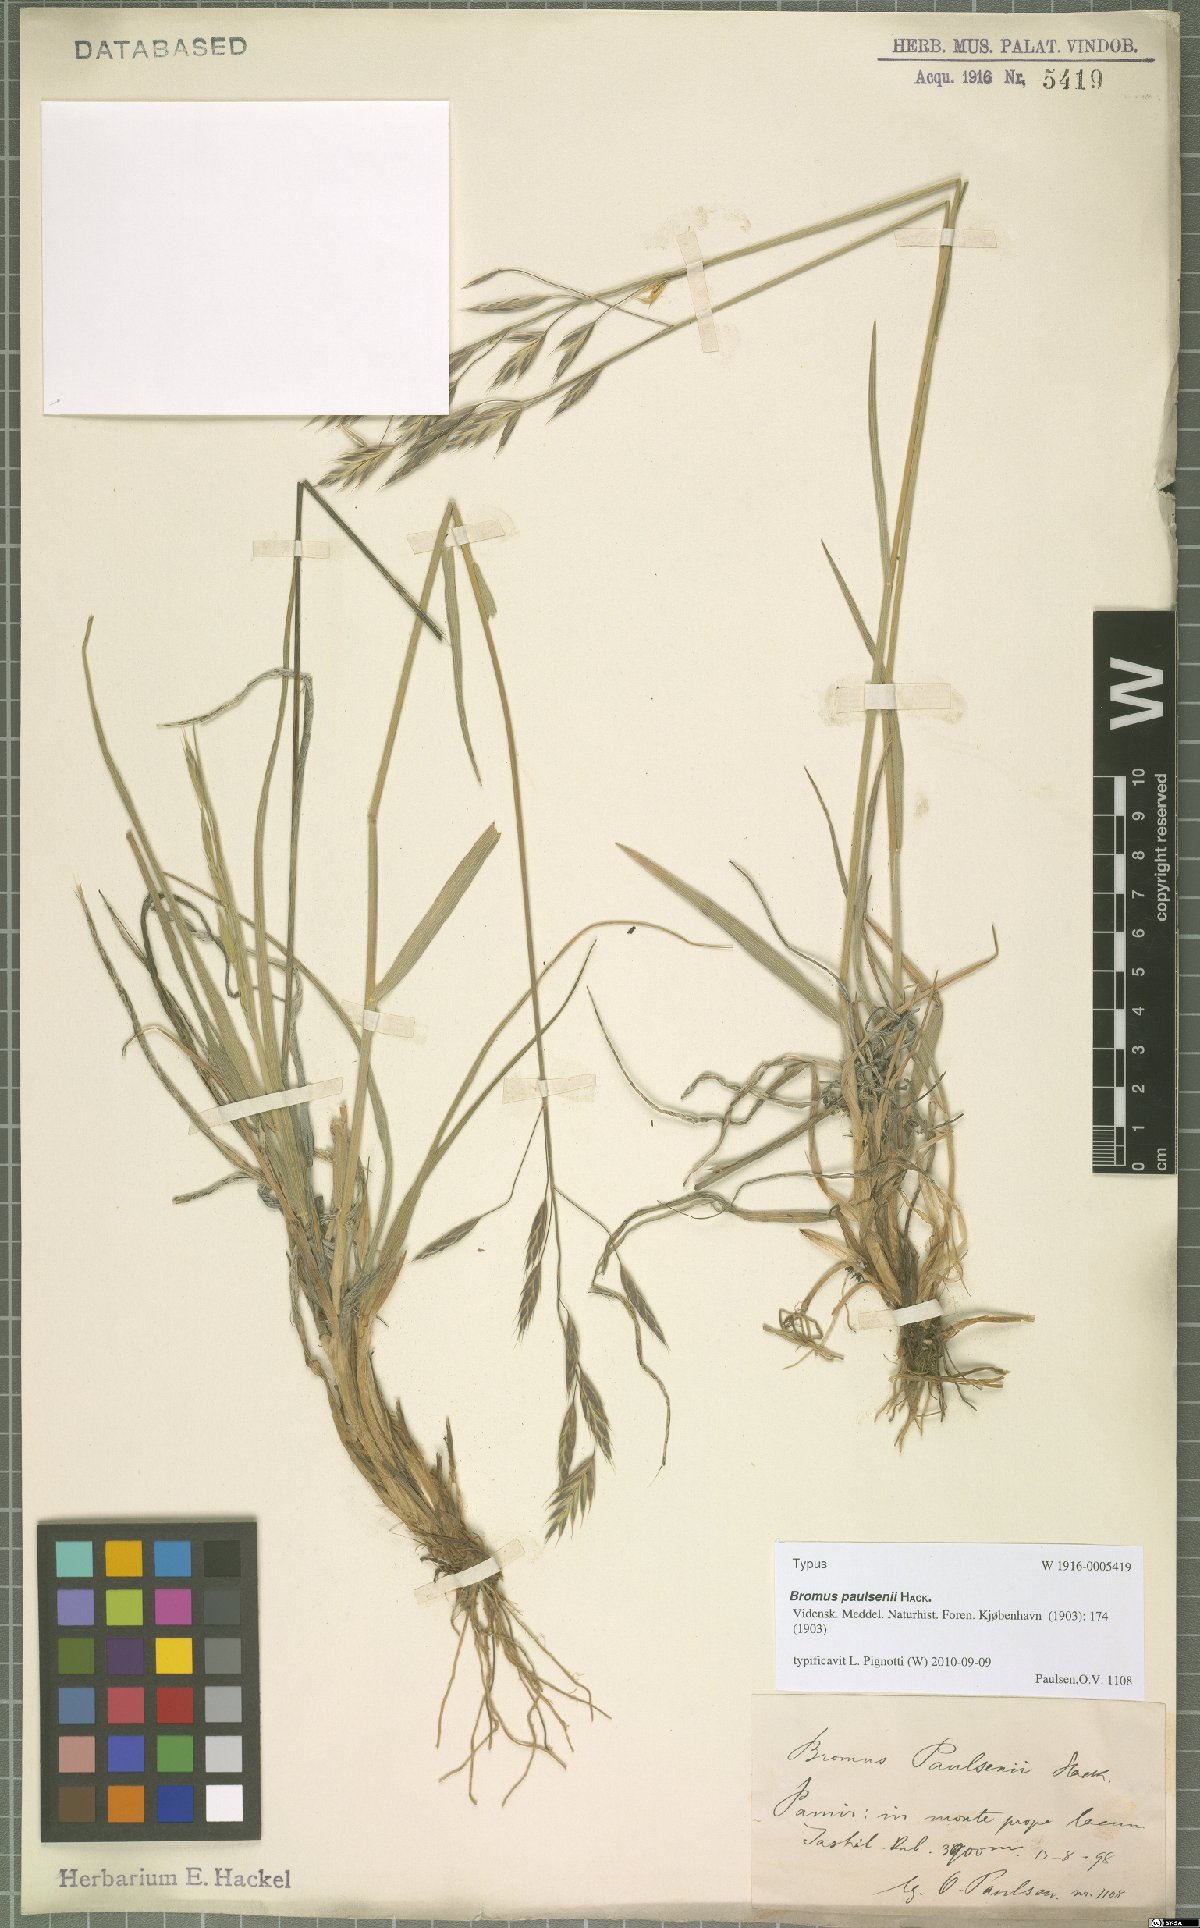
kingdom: Plantae
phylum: Tracheophyta
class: Liliopsida
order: Poales
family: Poaceae
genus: Bromus
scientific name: Bromus paulsenii
